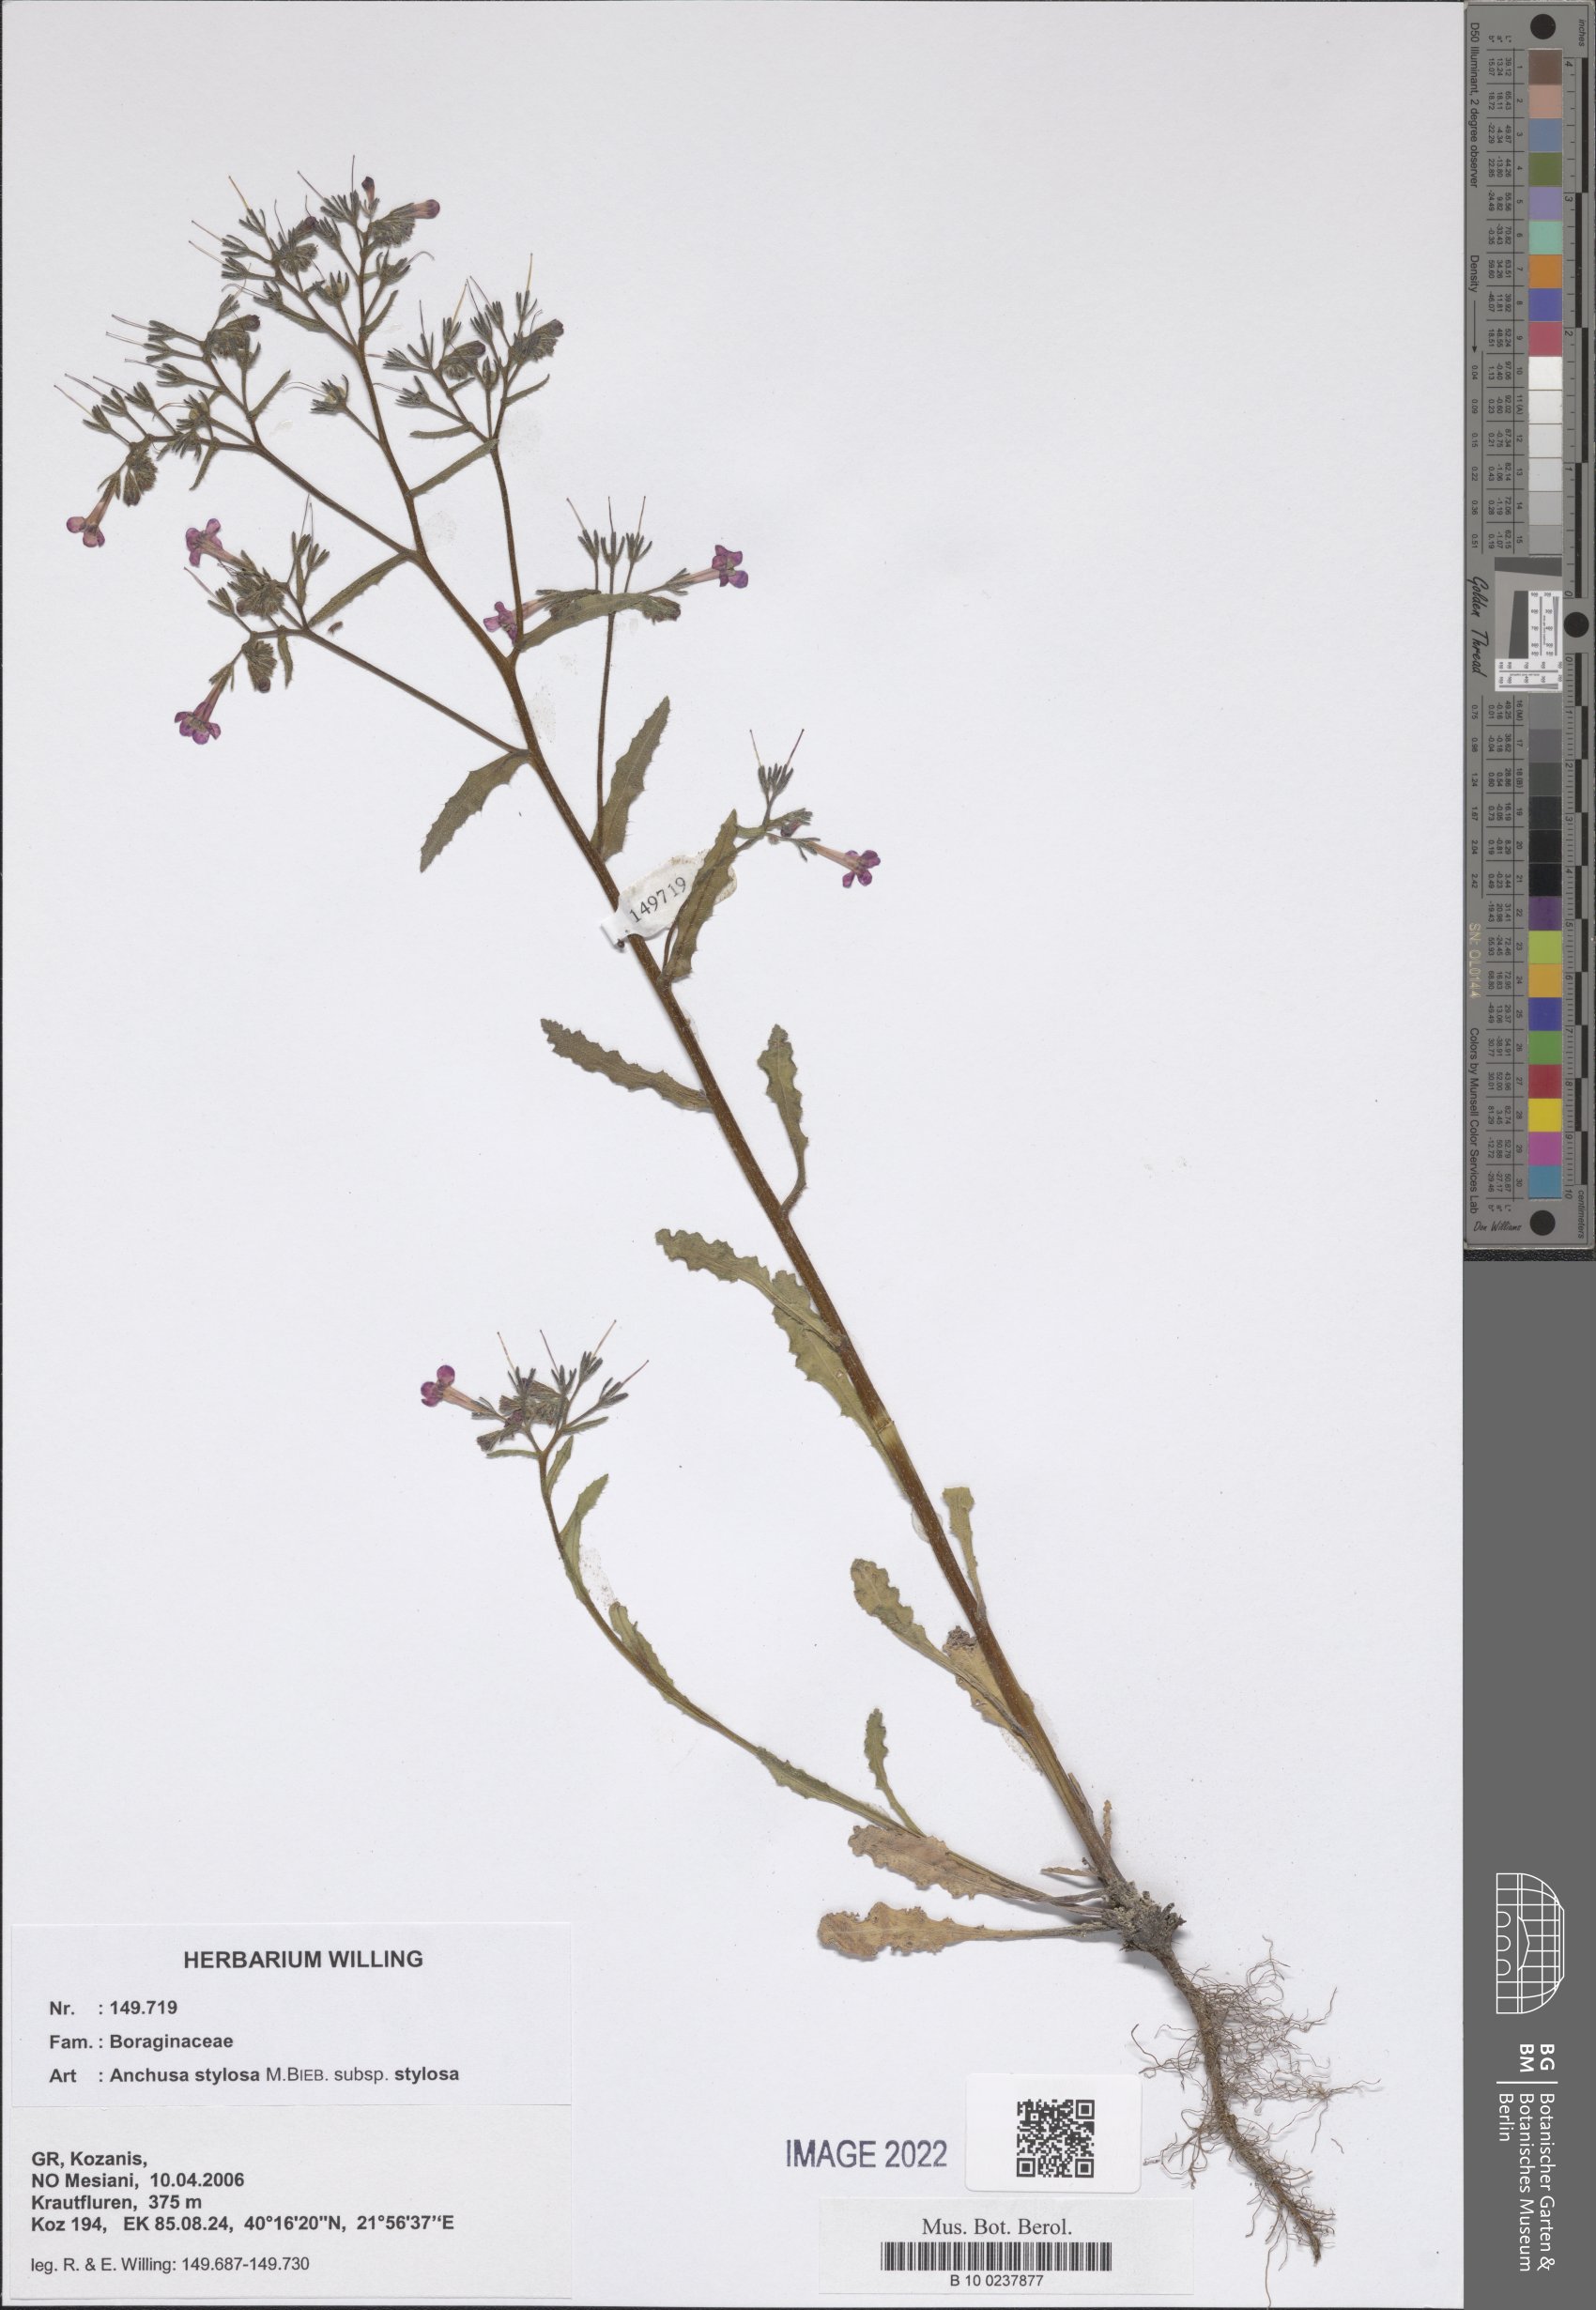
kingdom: Plantae
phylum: Tracheophyta
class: Magnoliopsida
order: Boraginales
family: Boraginaceae
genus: Anchusa
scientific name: Anchusa stylosa
